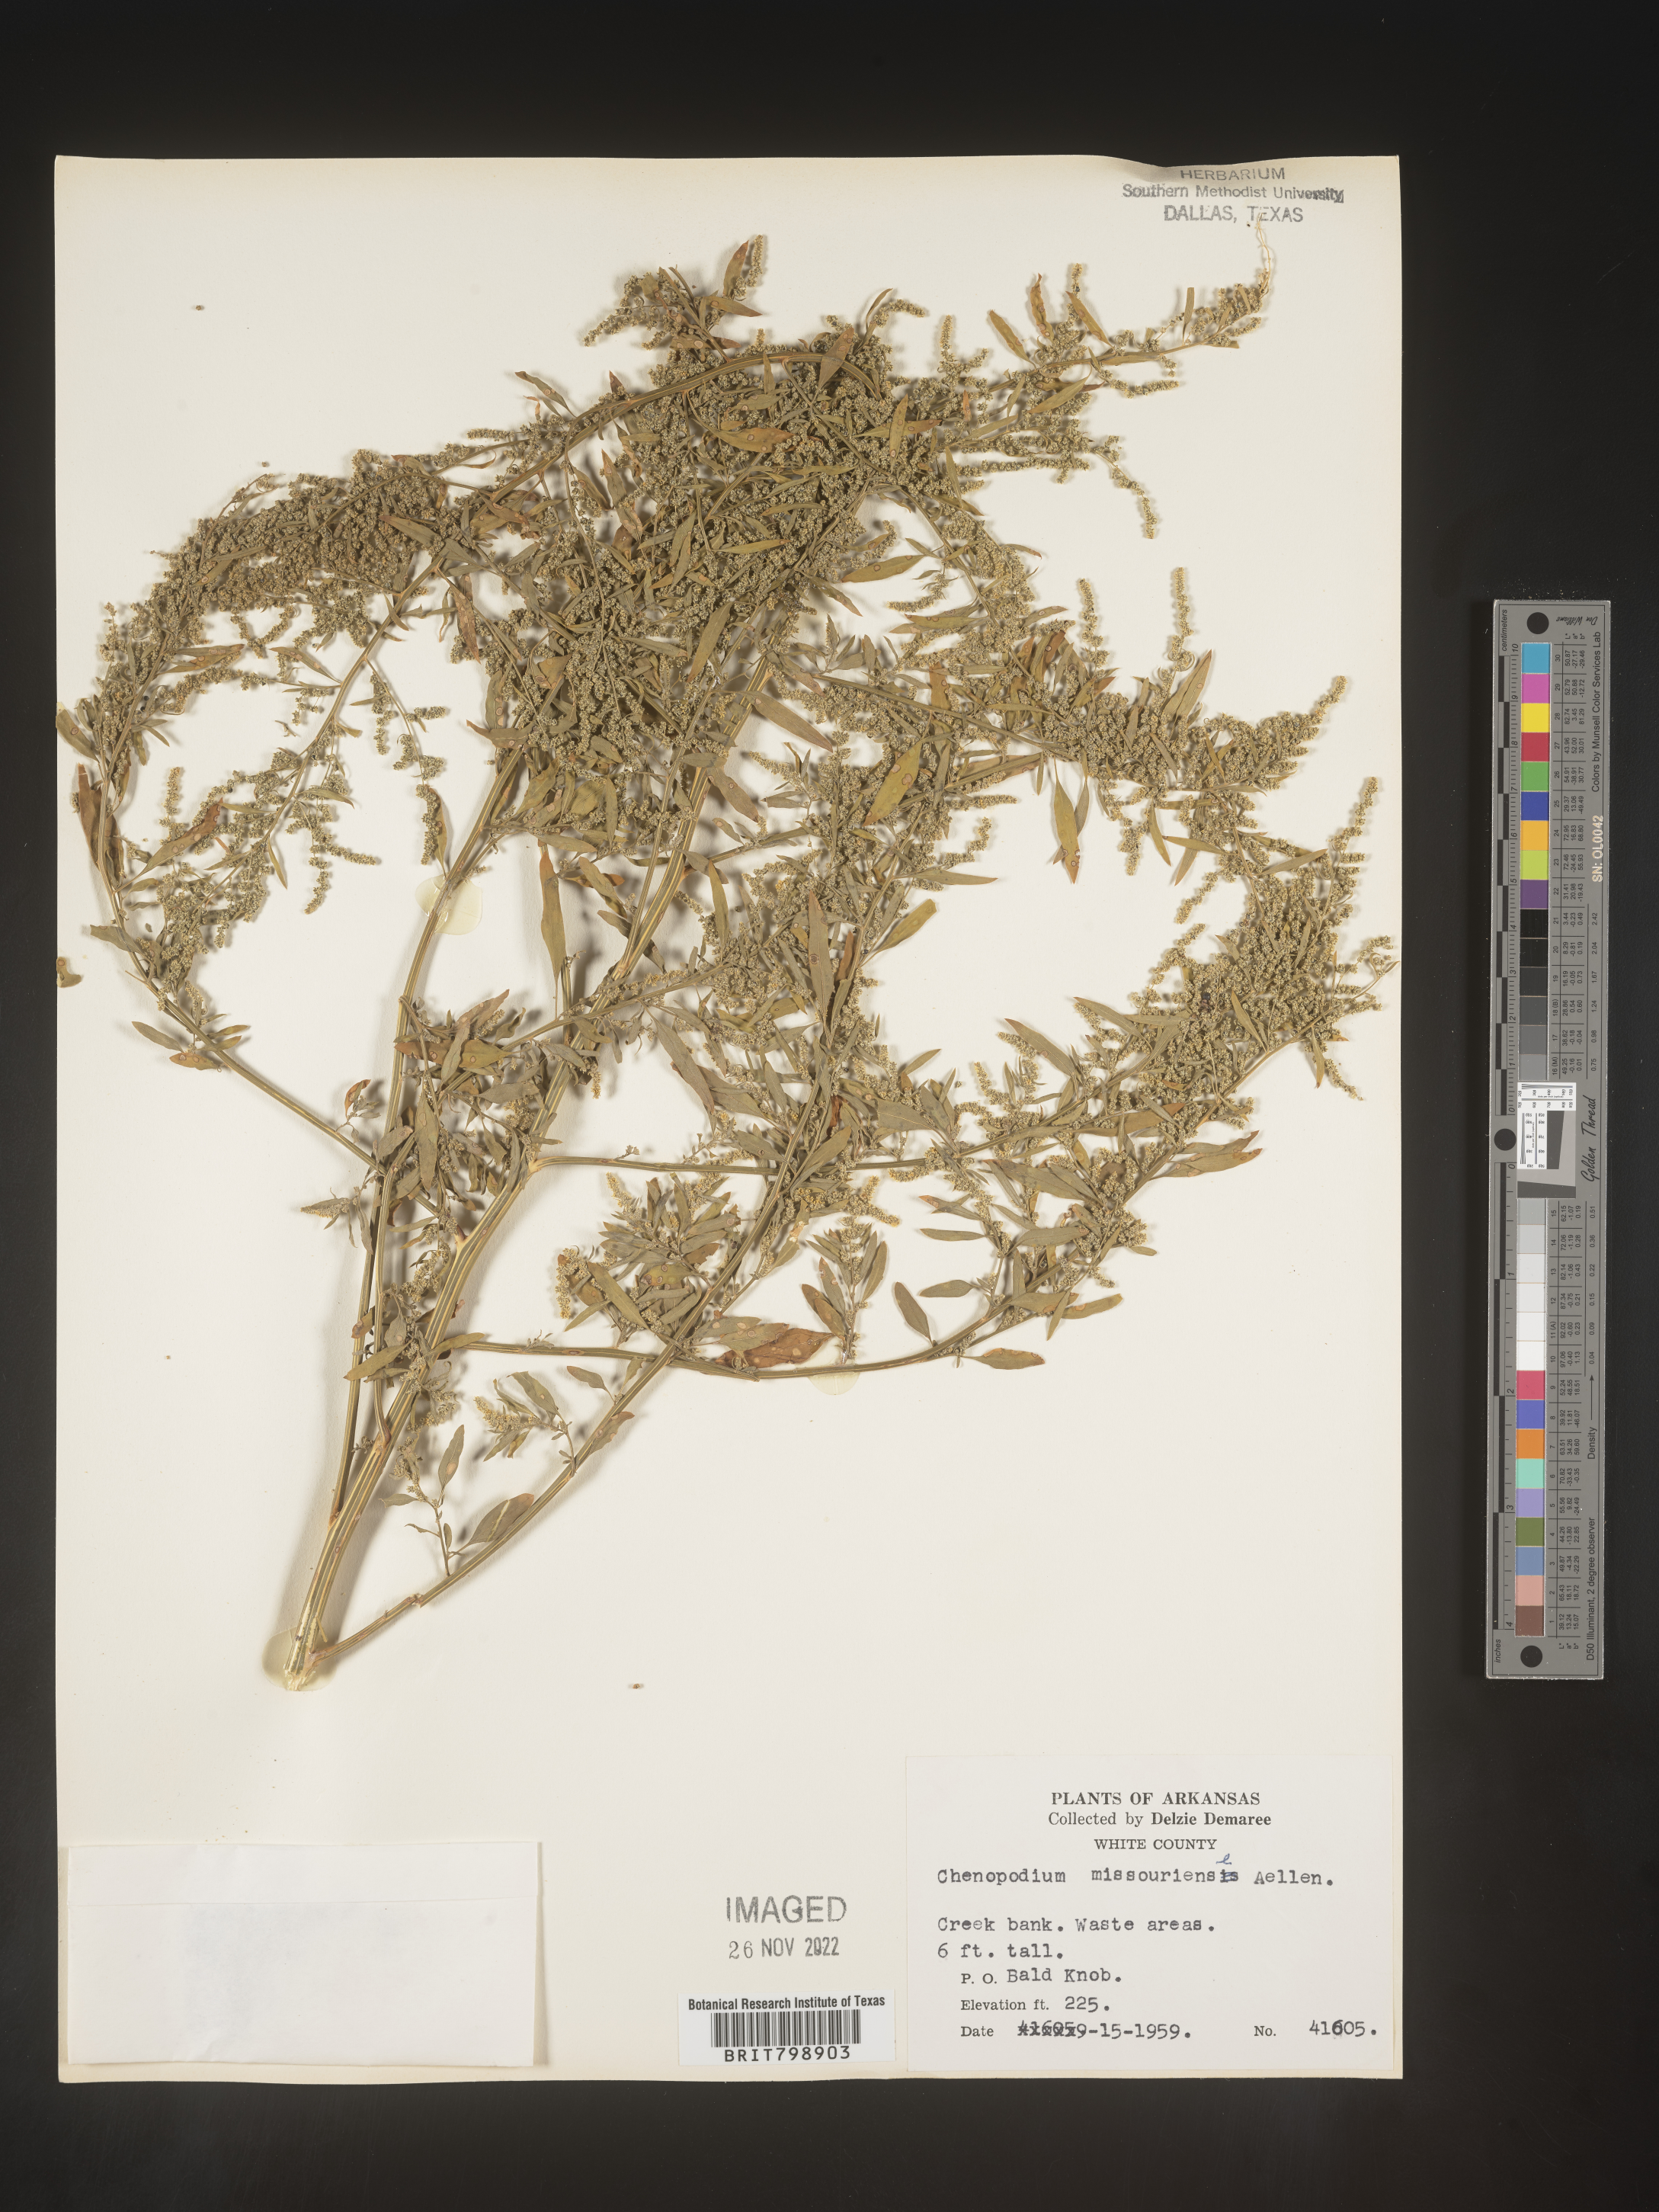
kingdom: Plantae
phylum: Tracheophyta
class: Magnoliopsida
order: Caryophyllales
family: Amaranthaceae
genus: Chenopodium
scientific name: Chenopodium album
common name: Fat-hen
